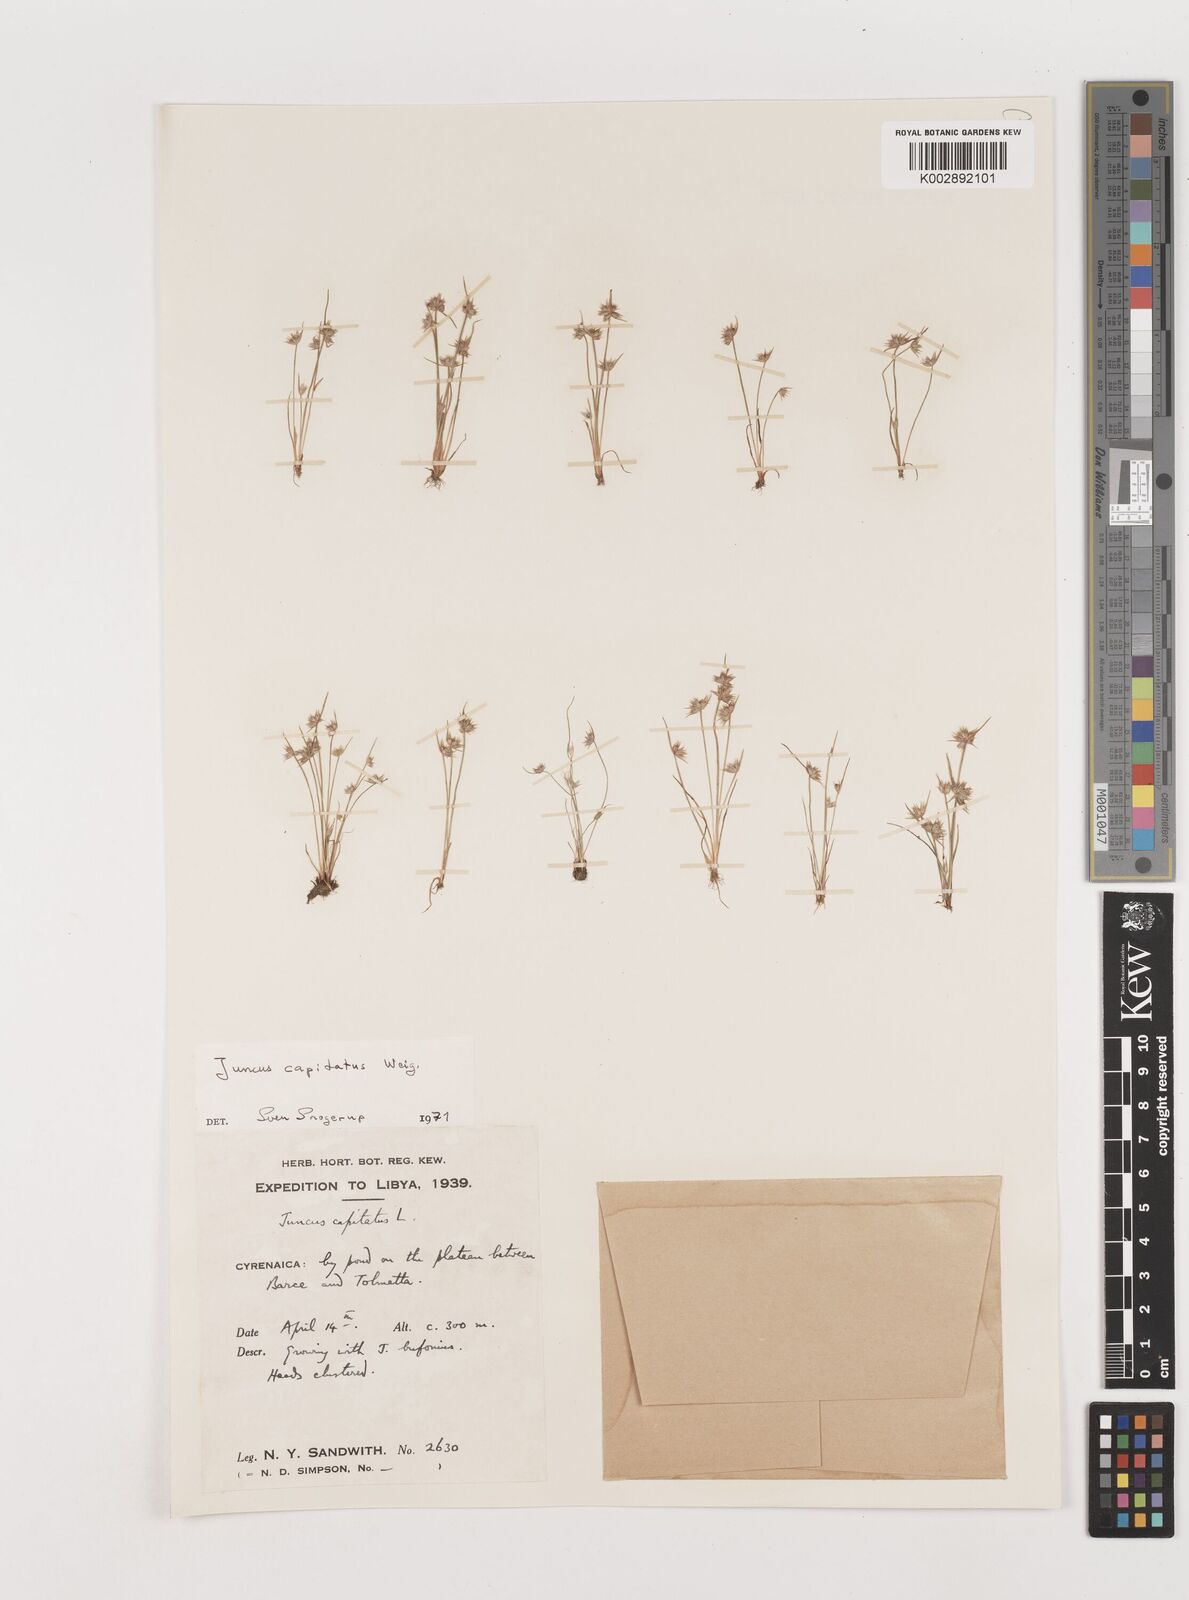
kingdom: Plantae
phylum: Tracheophyta
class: Liliopsida
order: Poales
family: Juncaceae
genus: Juncus
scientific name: Juncus capitatus
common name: Dwarf rush
